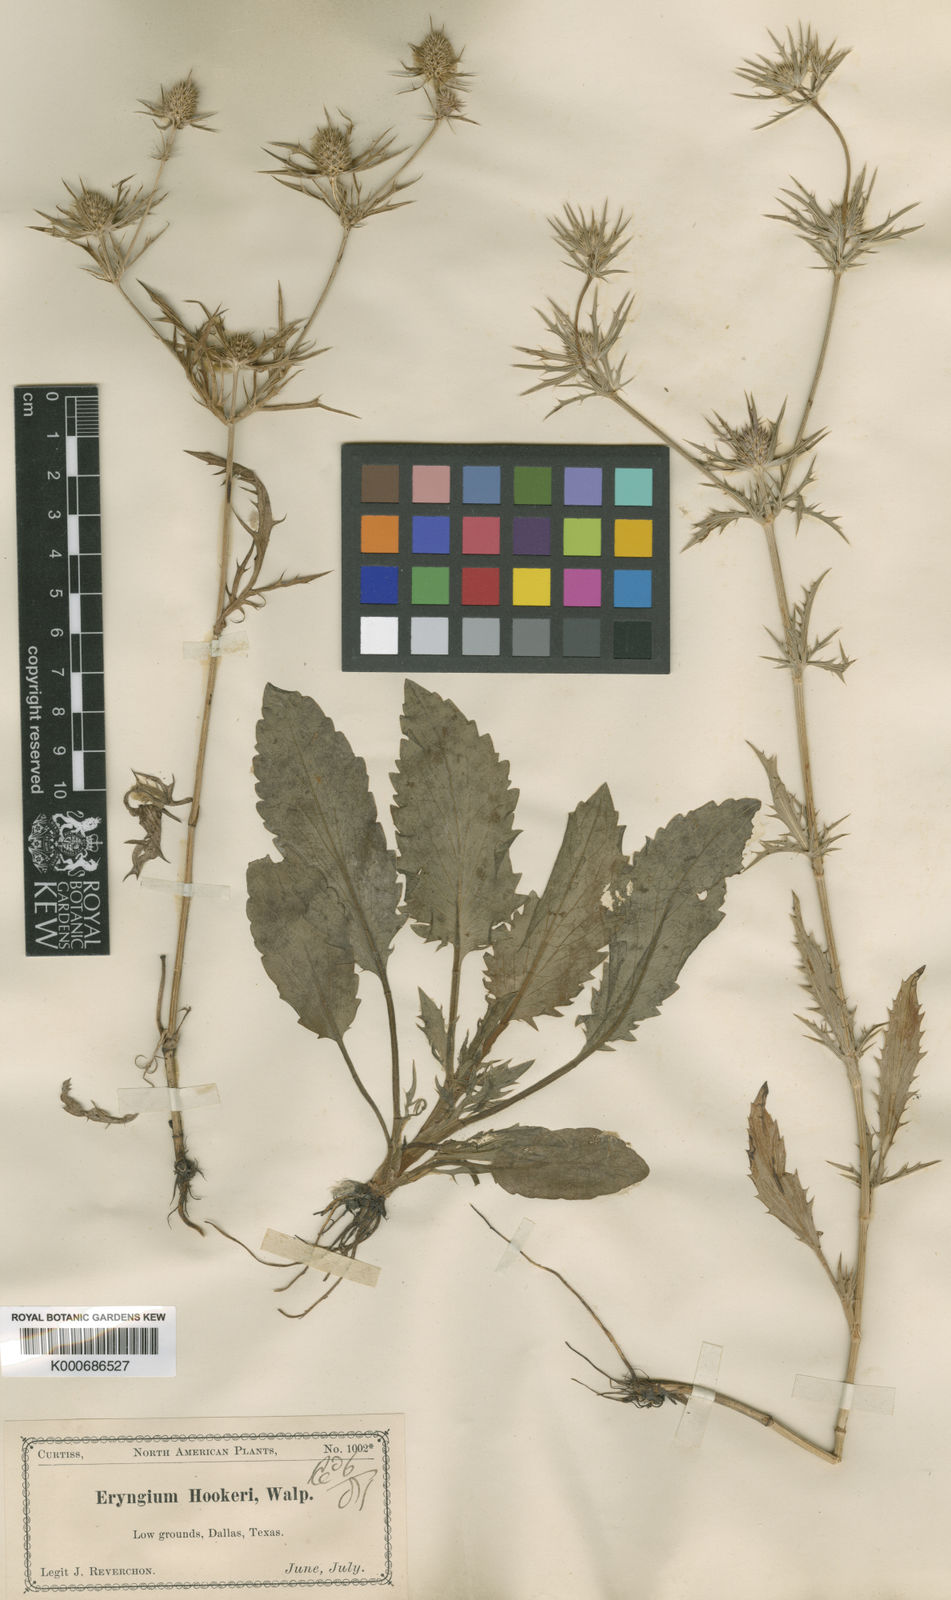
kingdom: Plantae
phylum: Tracheophyta
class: Magnoliopsida
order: Apiales
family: Apiaceae
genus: Eryngium
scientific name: Eryngium hookeri
